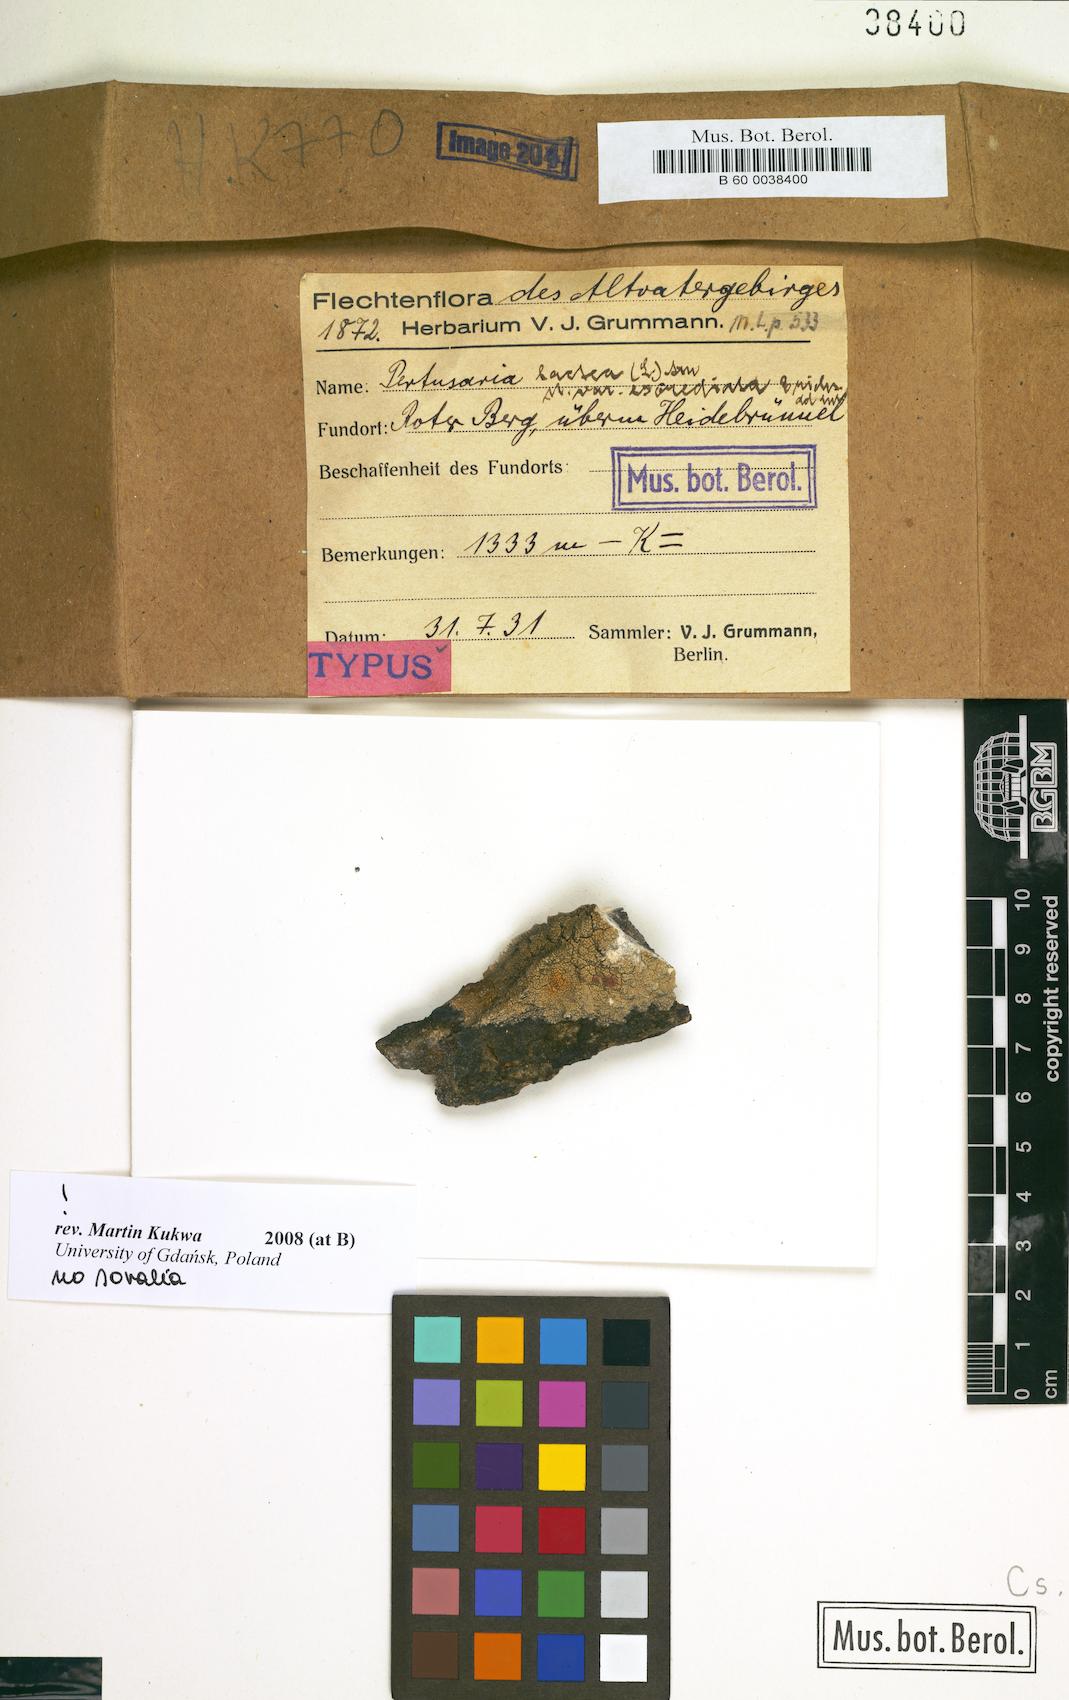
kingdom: Fungi
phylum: Ascomycota
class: Lecanoromycetes
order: Pertusariales
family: Varicellariaceae
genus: Varicellaria
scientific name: Varicellaria lactea
